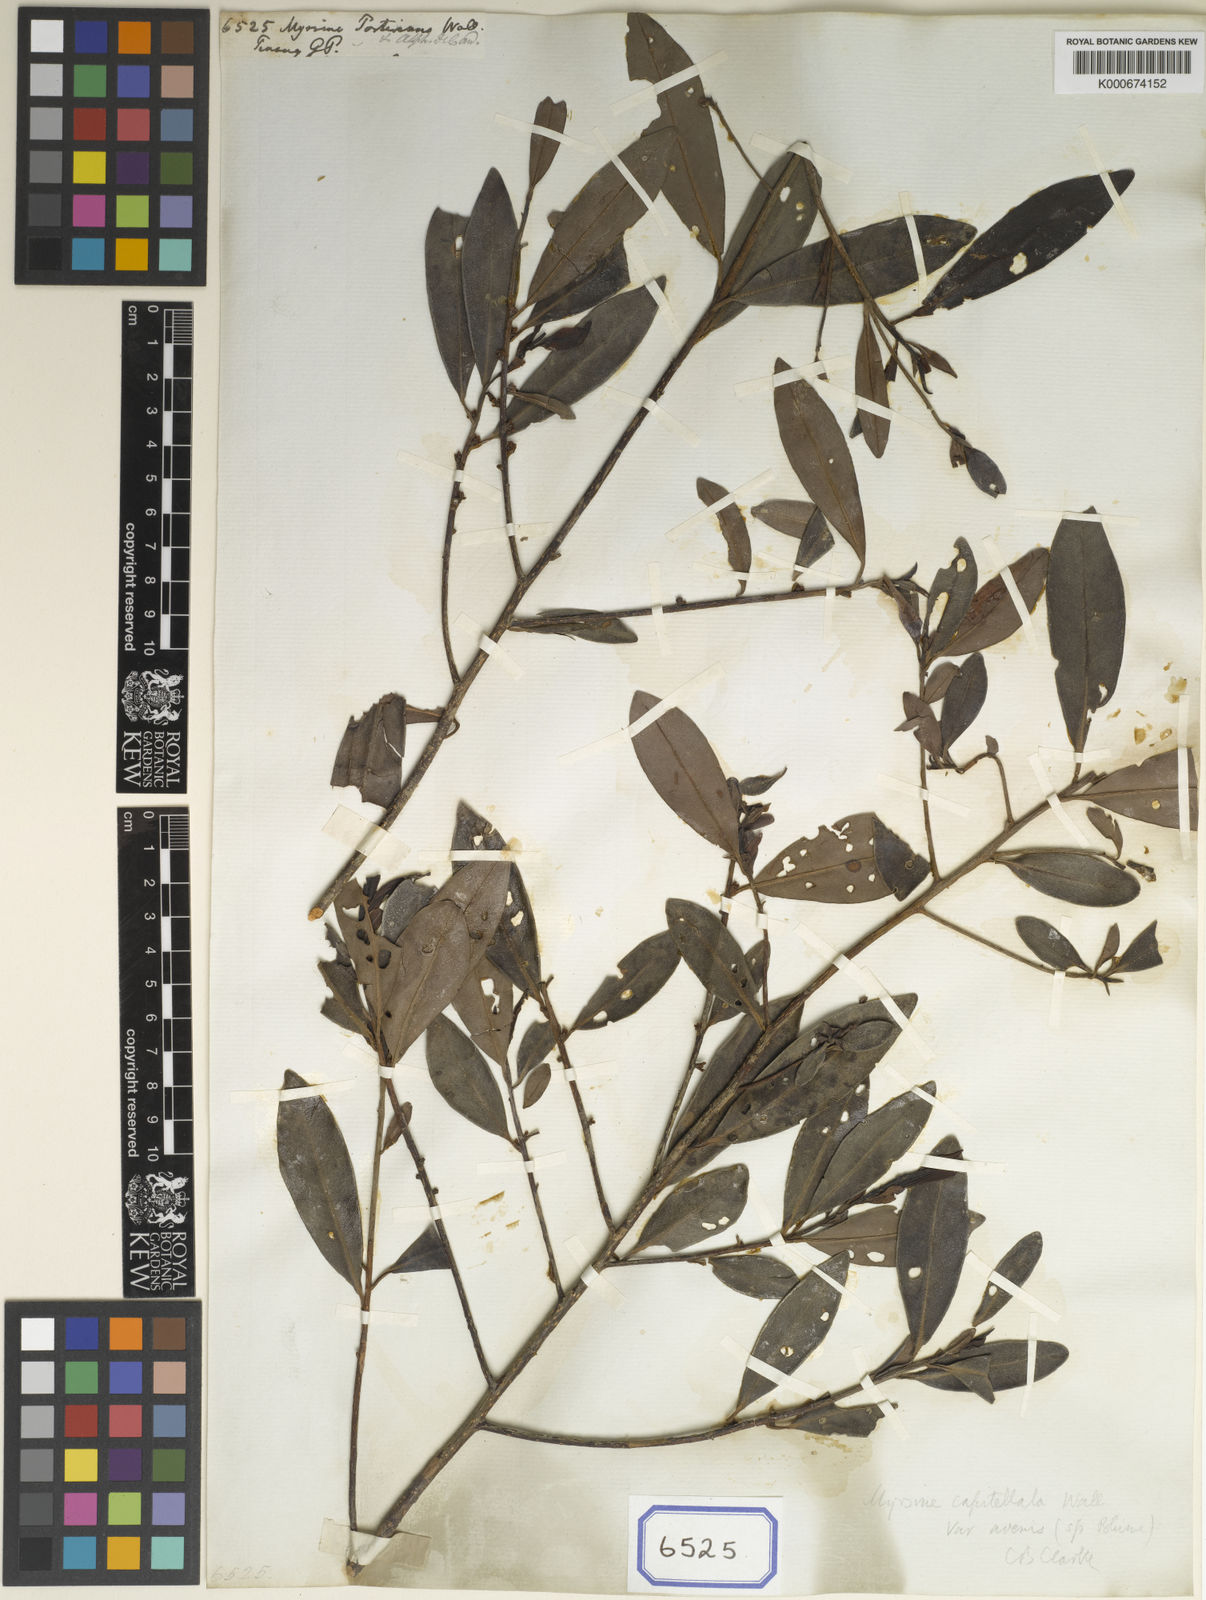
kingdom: Plantae
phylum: Tracheophyta
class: Magnoliopsida
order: Ericales
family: Primulaceae
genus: Myrsine
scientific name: Myrsine porteriana
